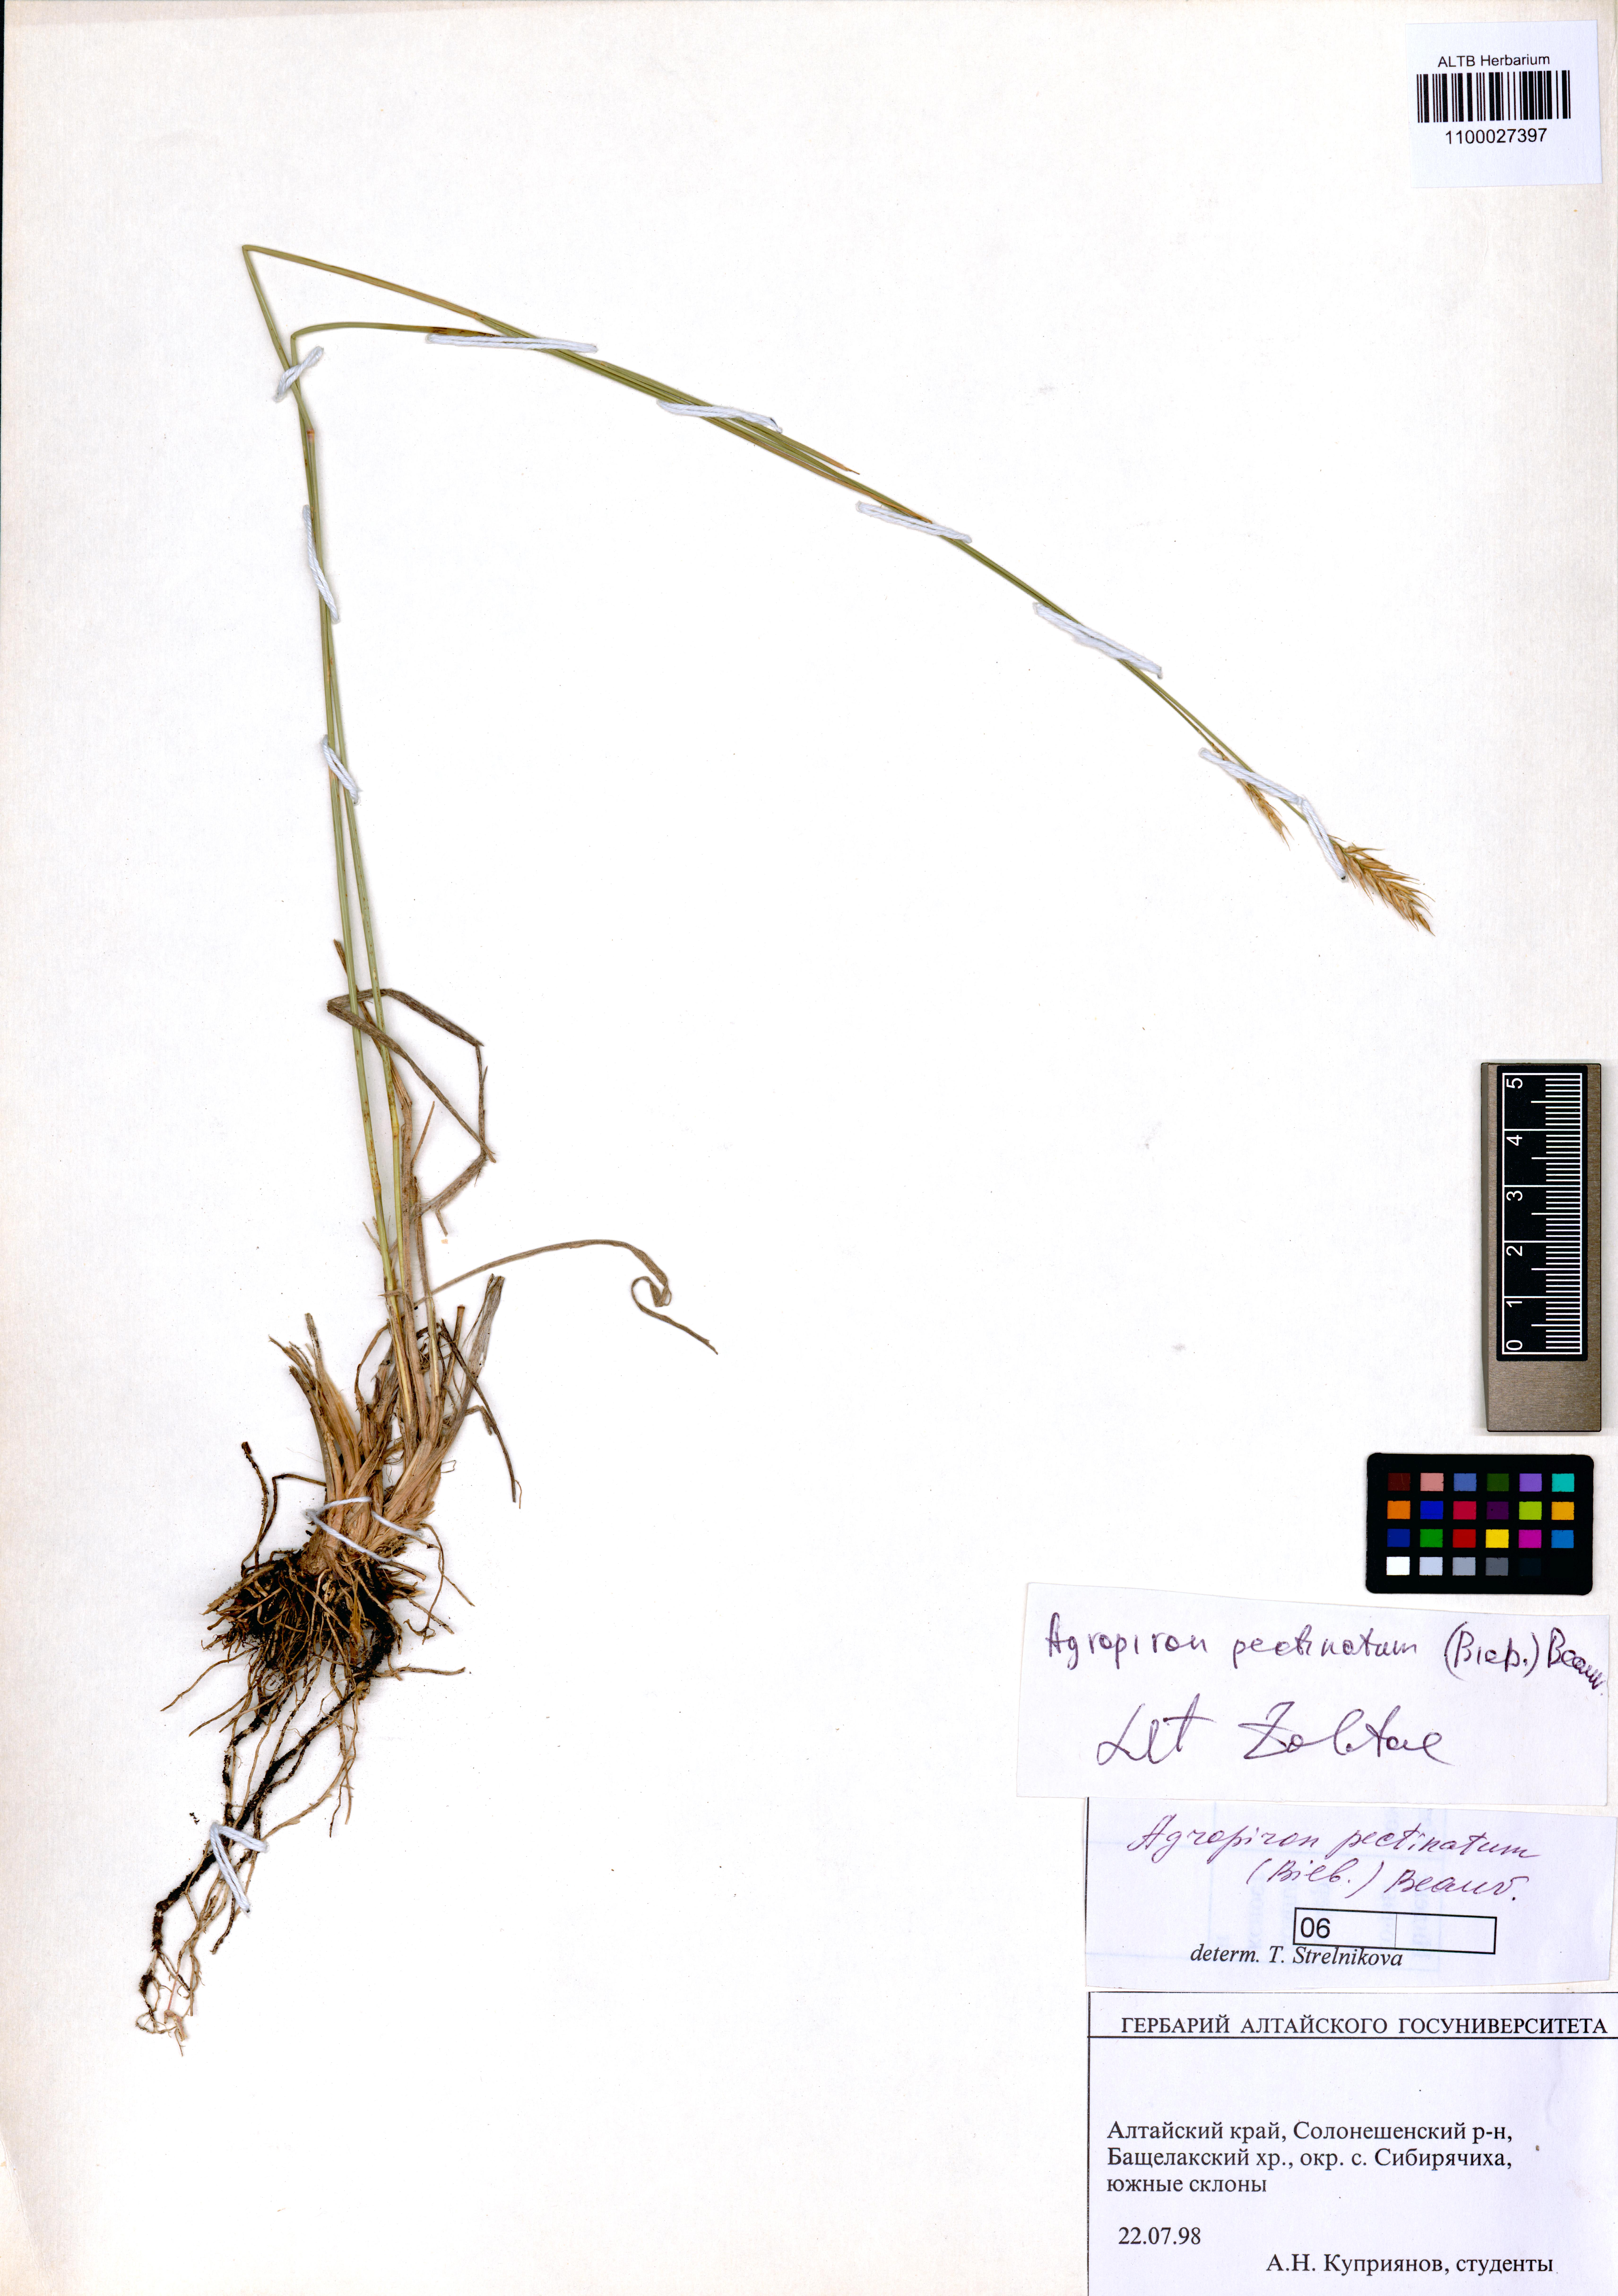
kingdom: Plantae
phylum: Tracheophyta
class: Liliopsida
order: Poales
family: Poaceae
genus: Agropyron
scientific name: Agropyron cristatum
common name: Crested wheatgrass
